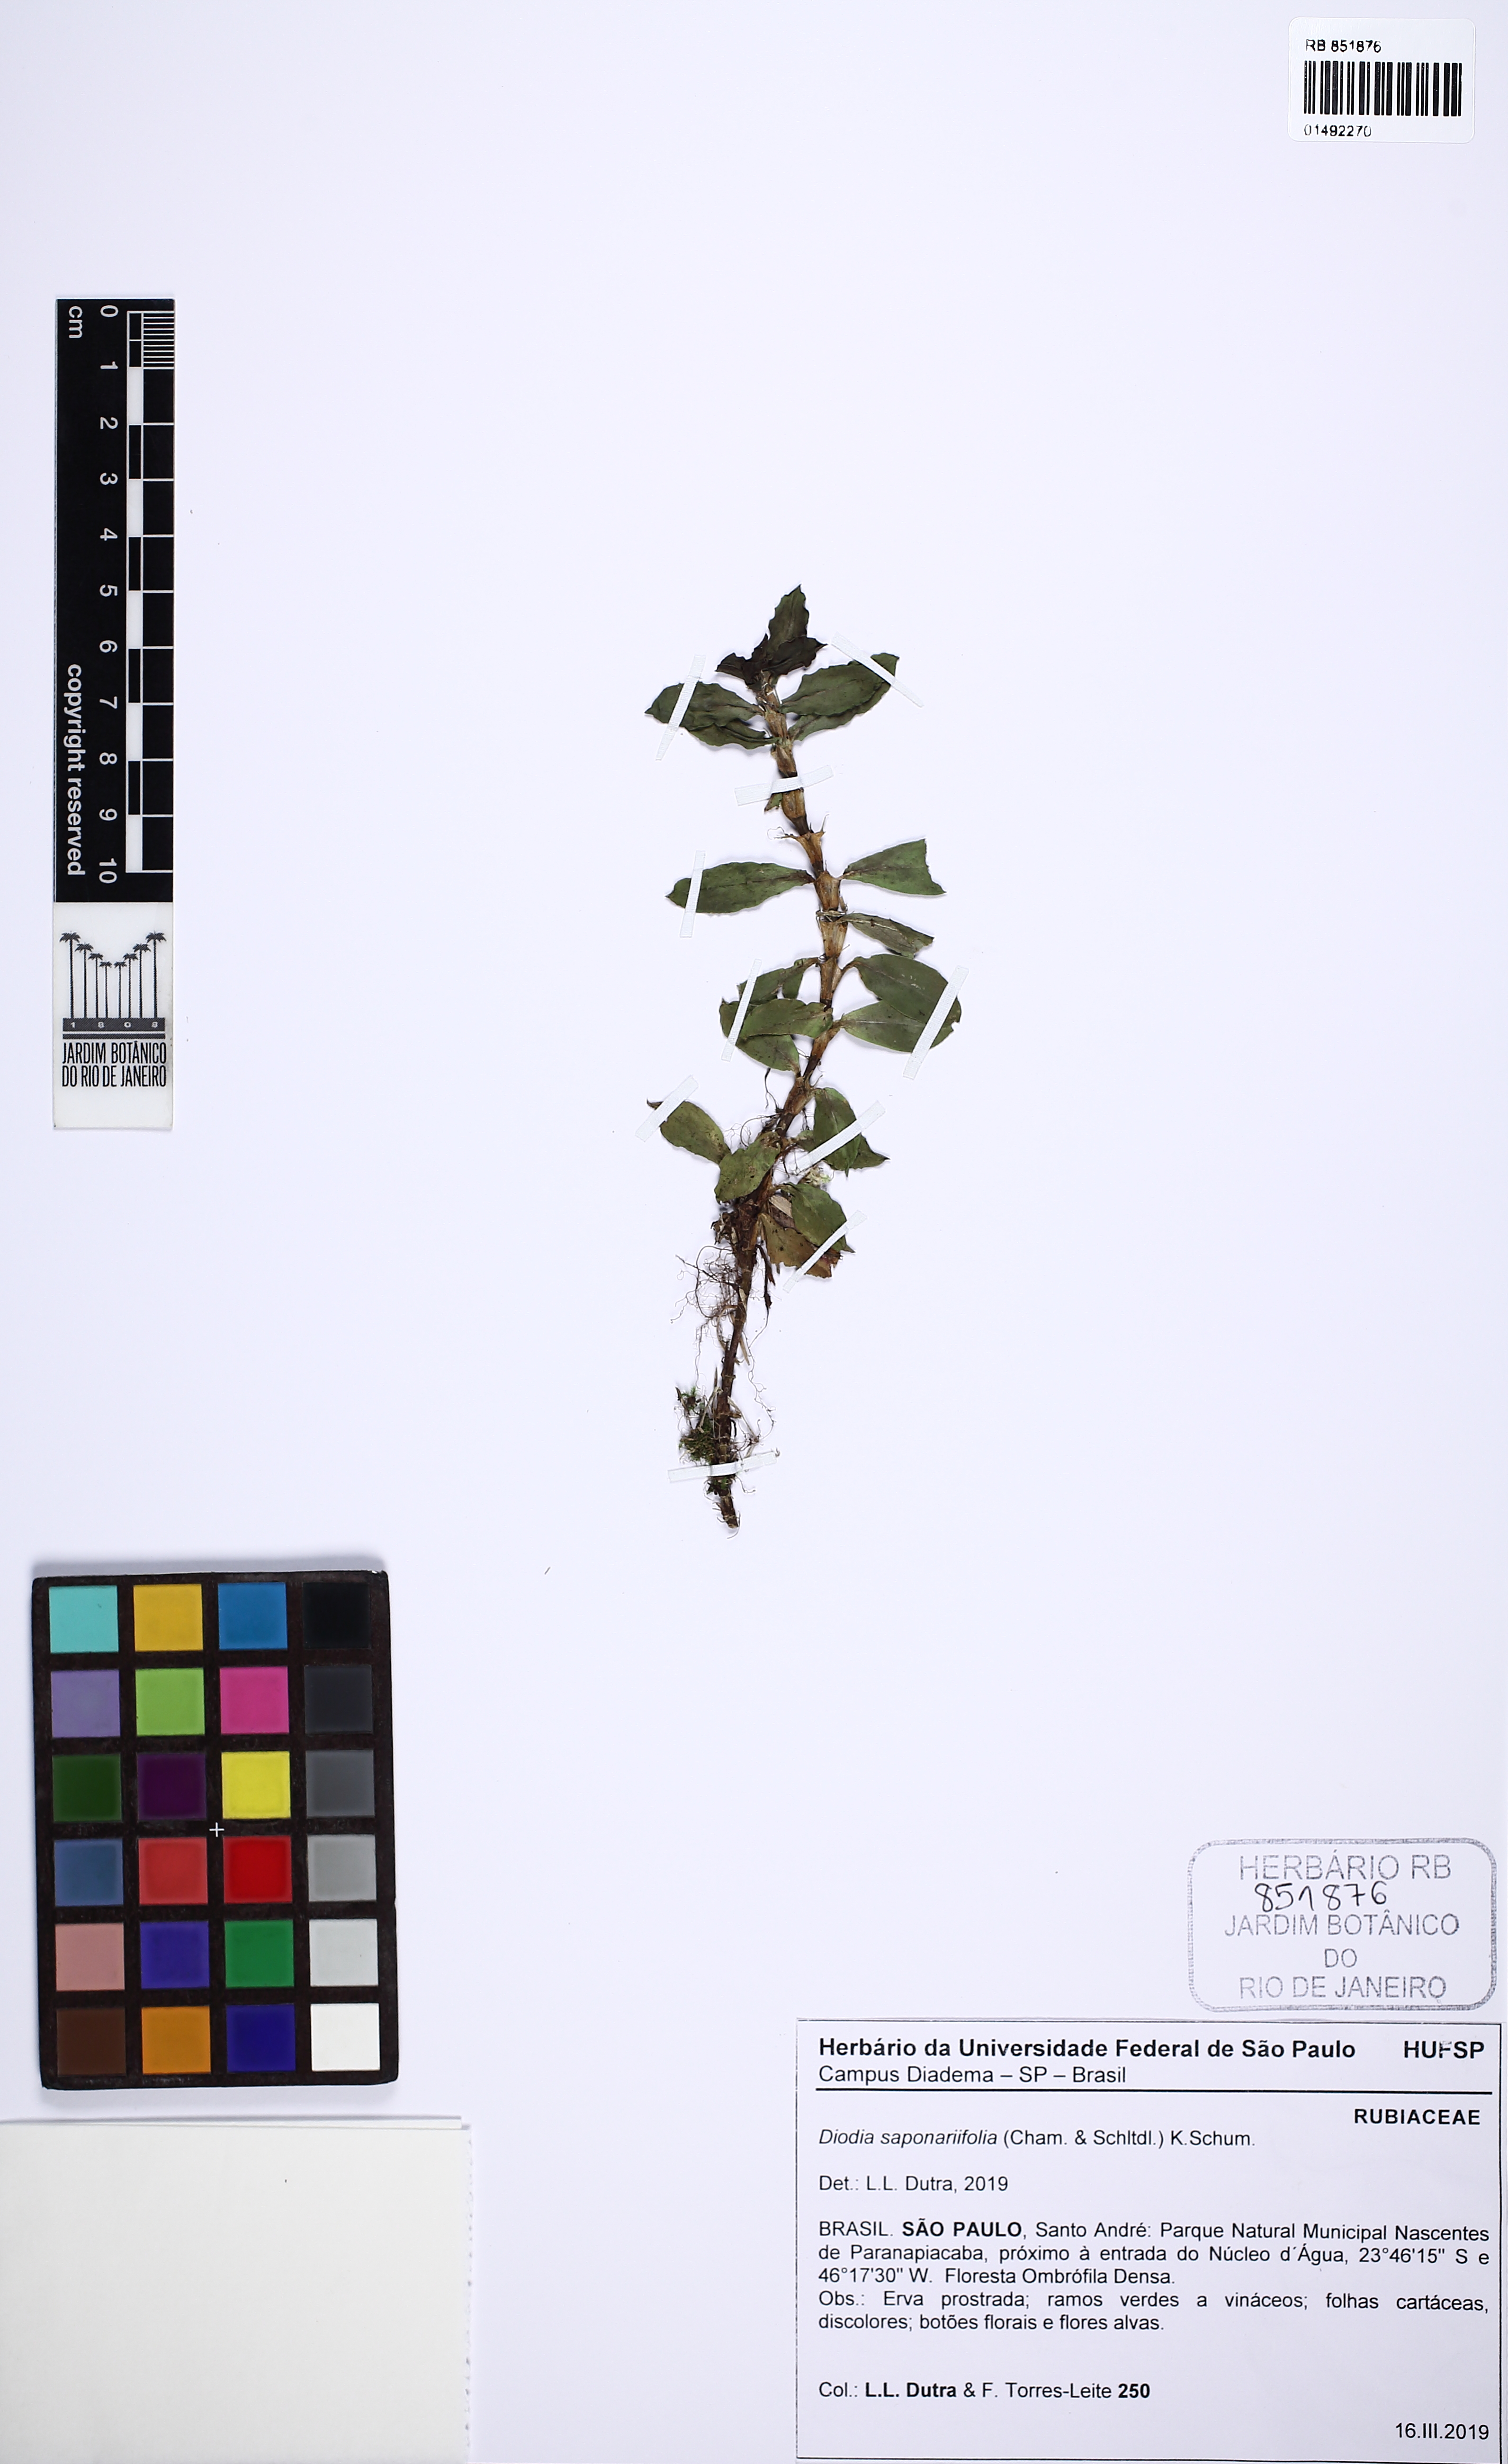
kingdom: Plantae
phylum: Tracheophyta
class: Magnoliopsida
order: Gentianales
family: Rubiaceae
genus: Diodia
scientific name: Diodia saponariifolia
